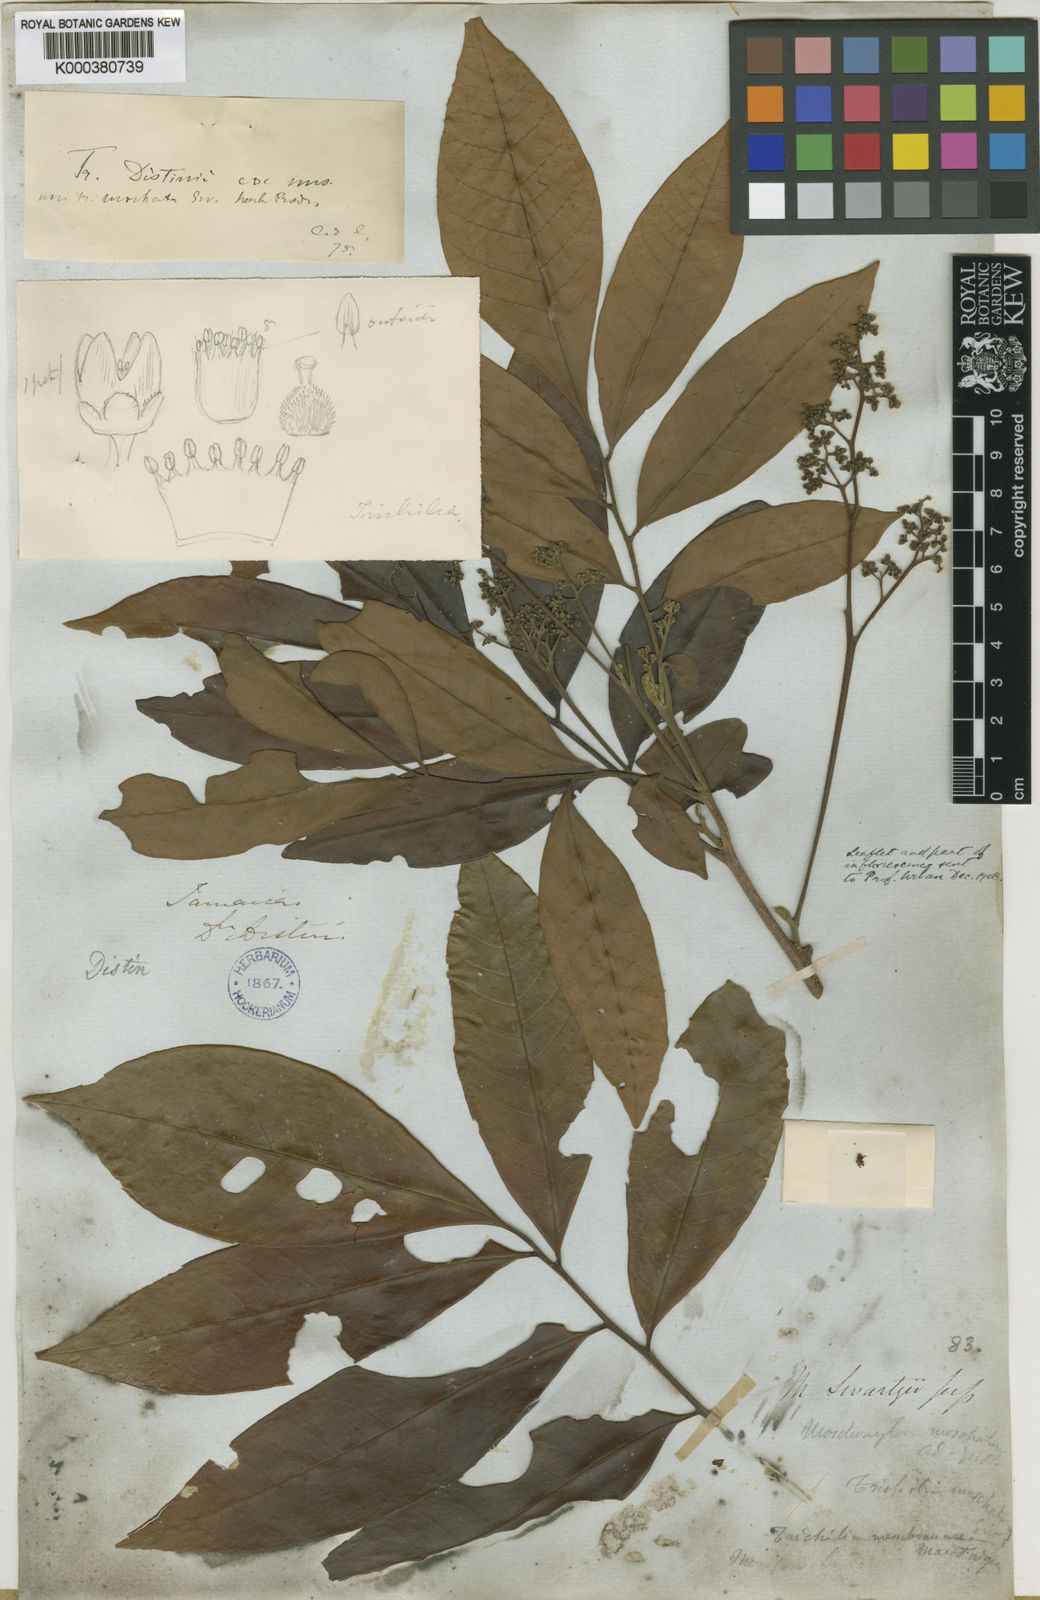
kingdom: Plantae
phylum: Tracheophyta
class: Magnoliopsida
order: Sapindales
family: Meliaceae
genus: Trichilia
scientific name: Trichilia moschata
